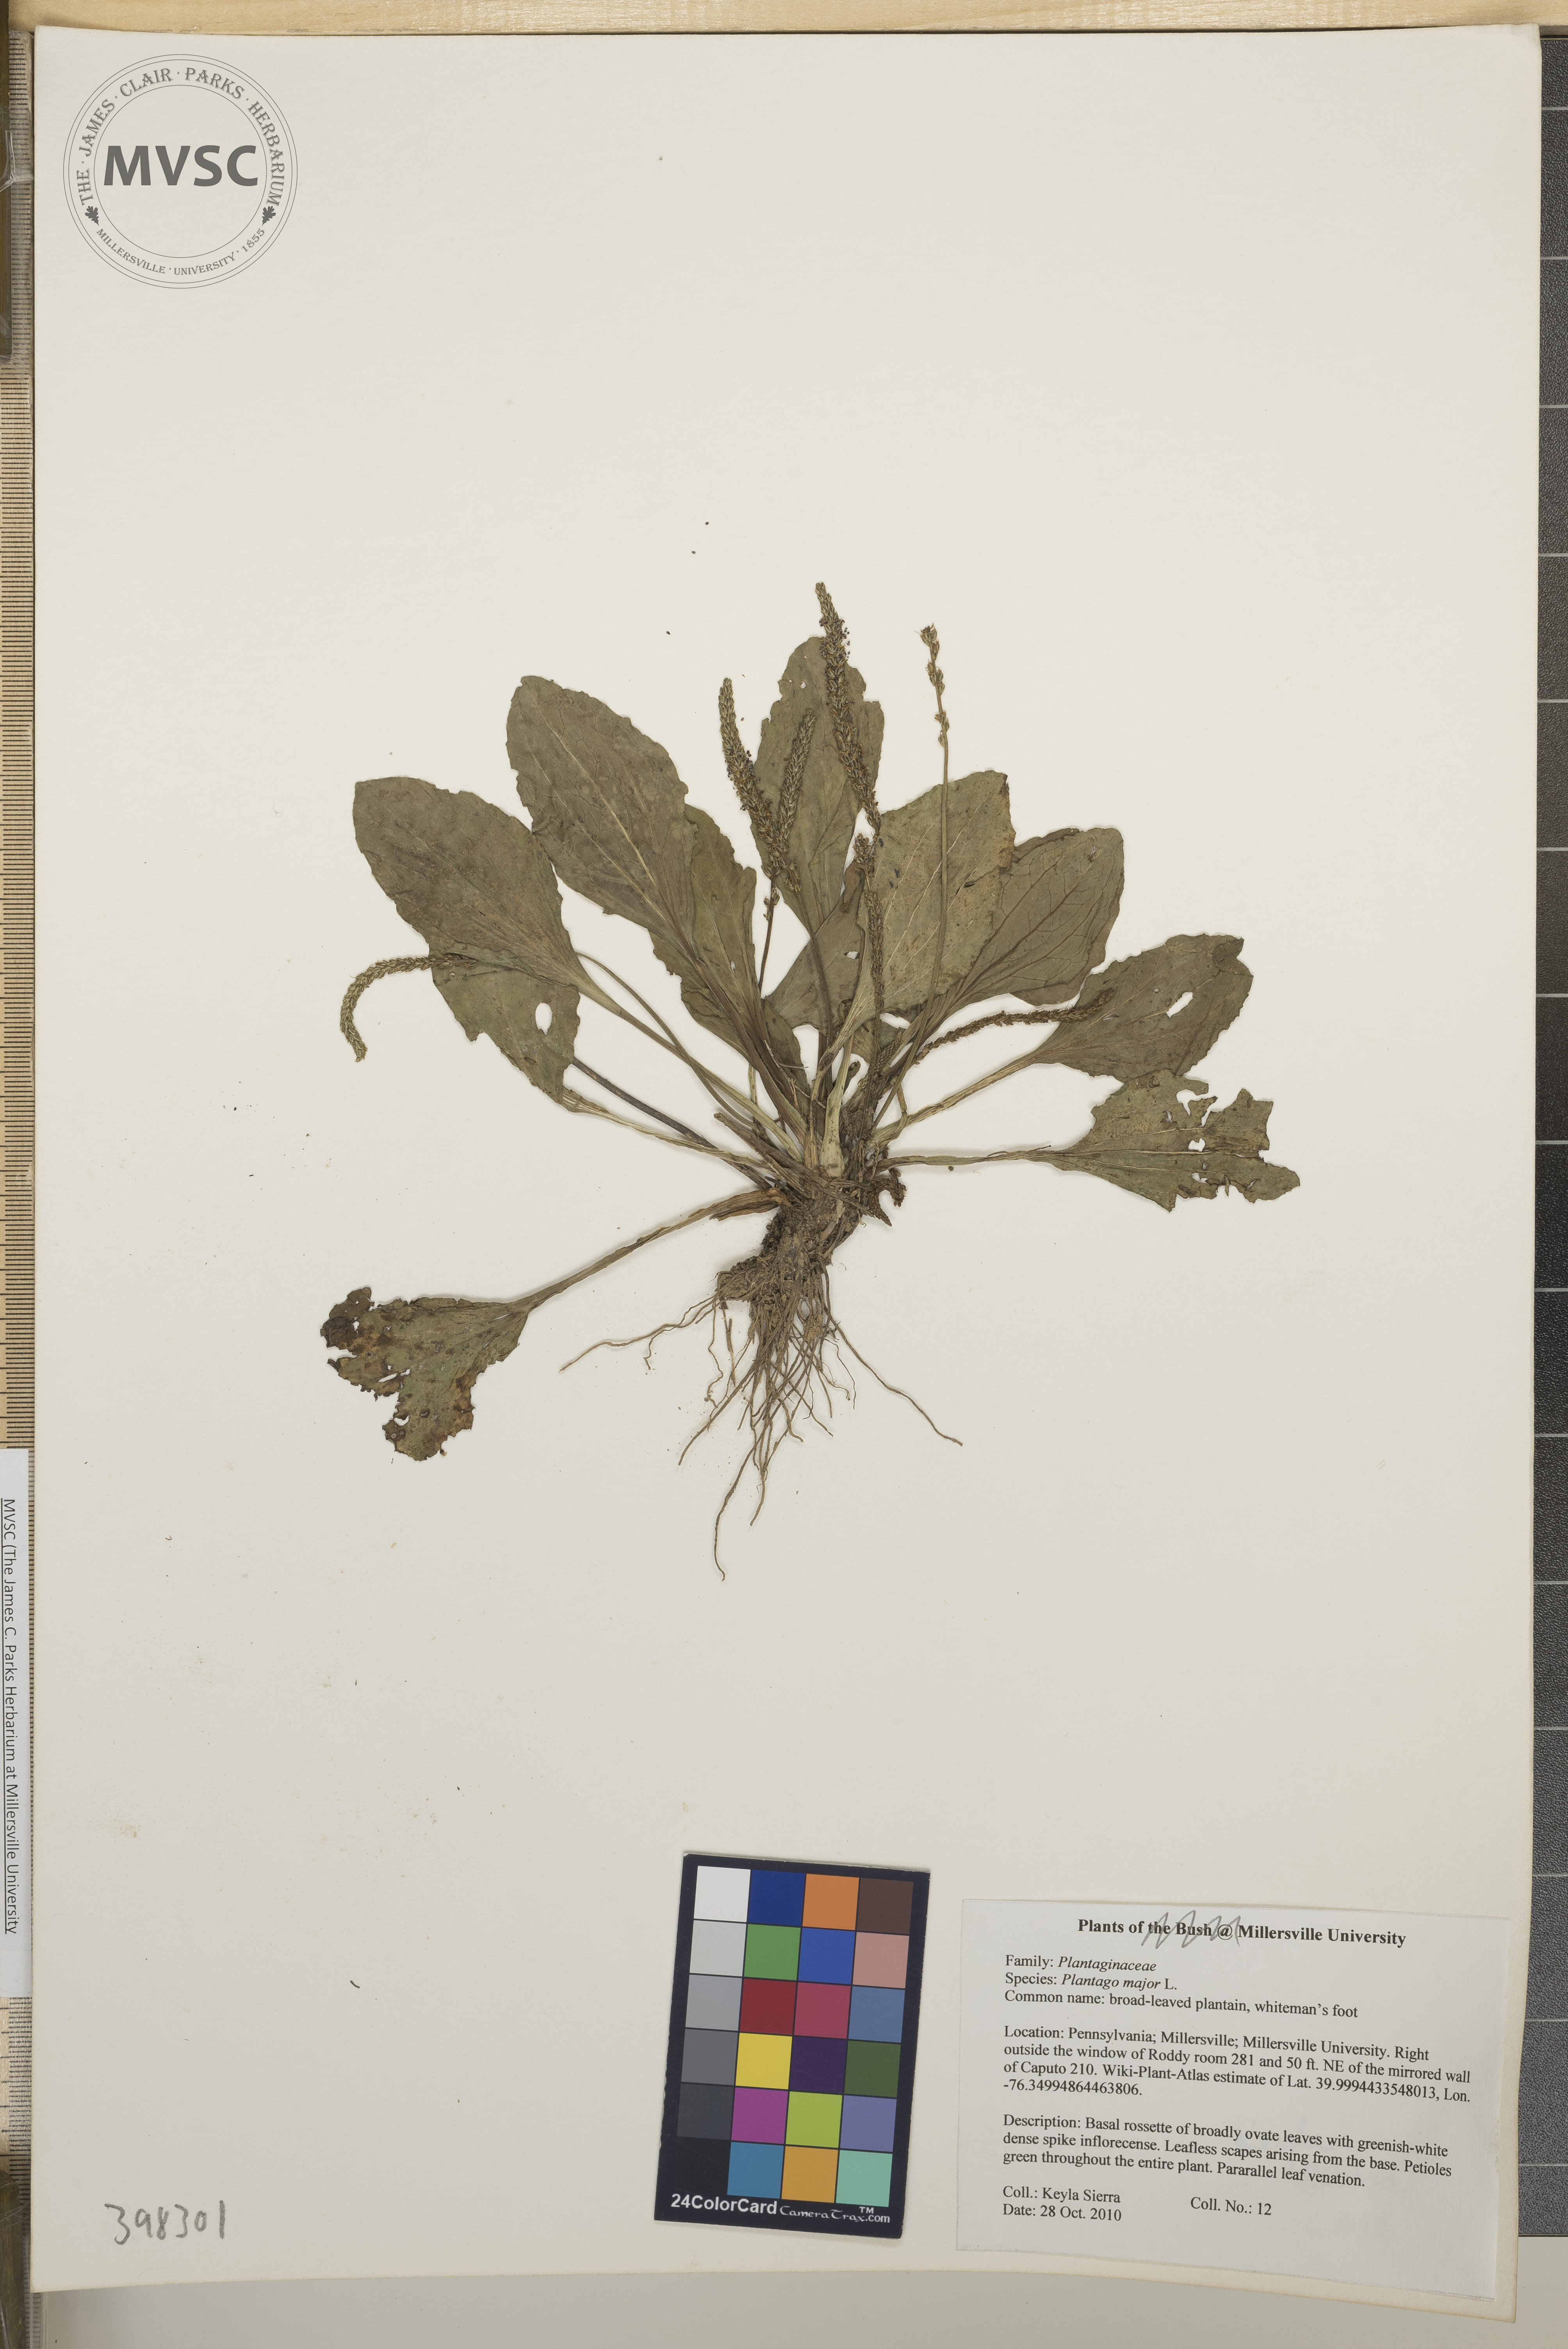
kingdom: Plantae
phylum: Tracheophyta
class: Magnoliopsida
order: Lamiales
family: Plantaginaceae
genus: Plantago
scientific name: Plantago major
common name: Broad-leaved plantain
